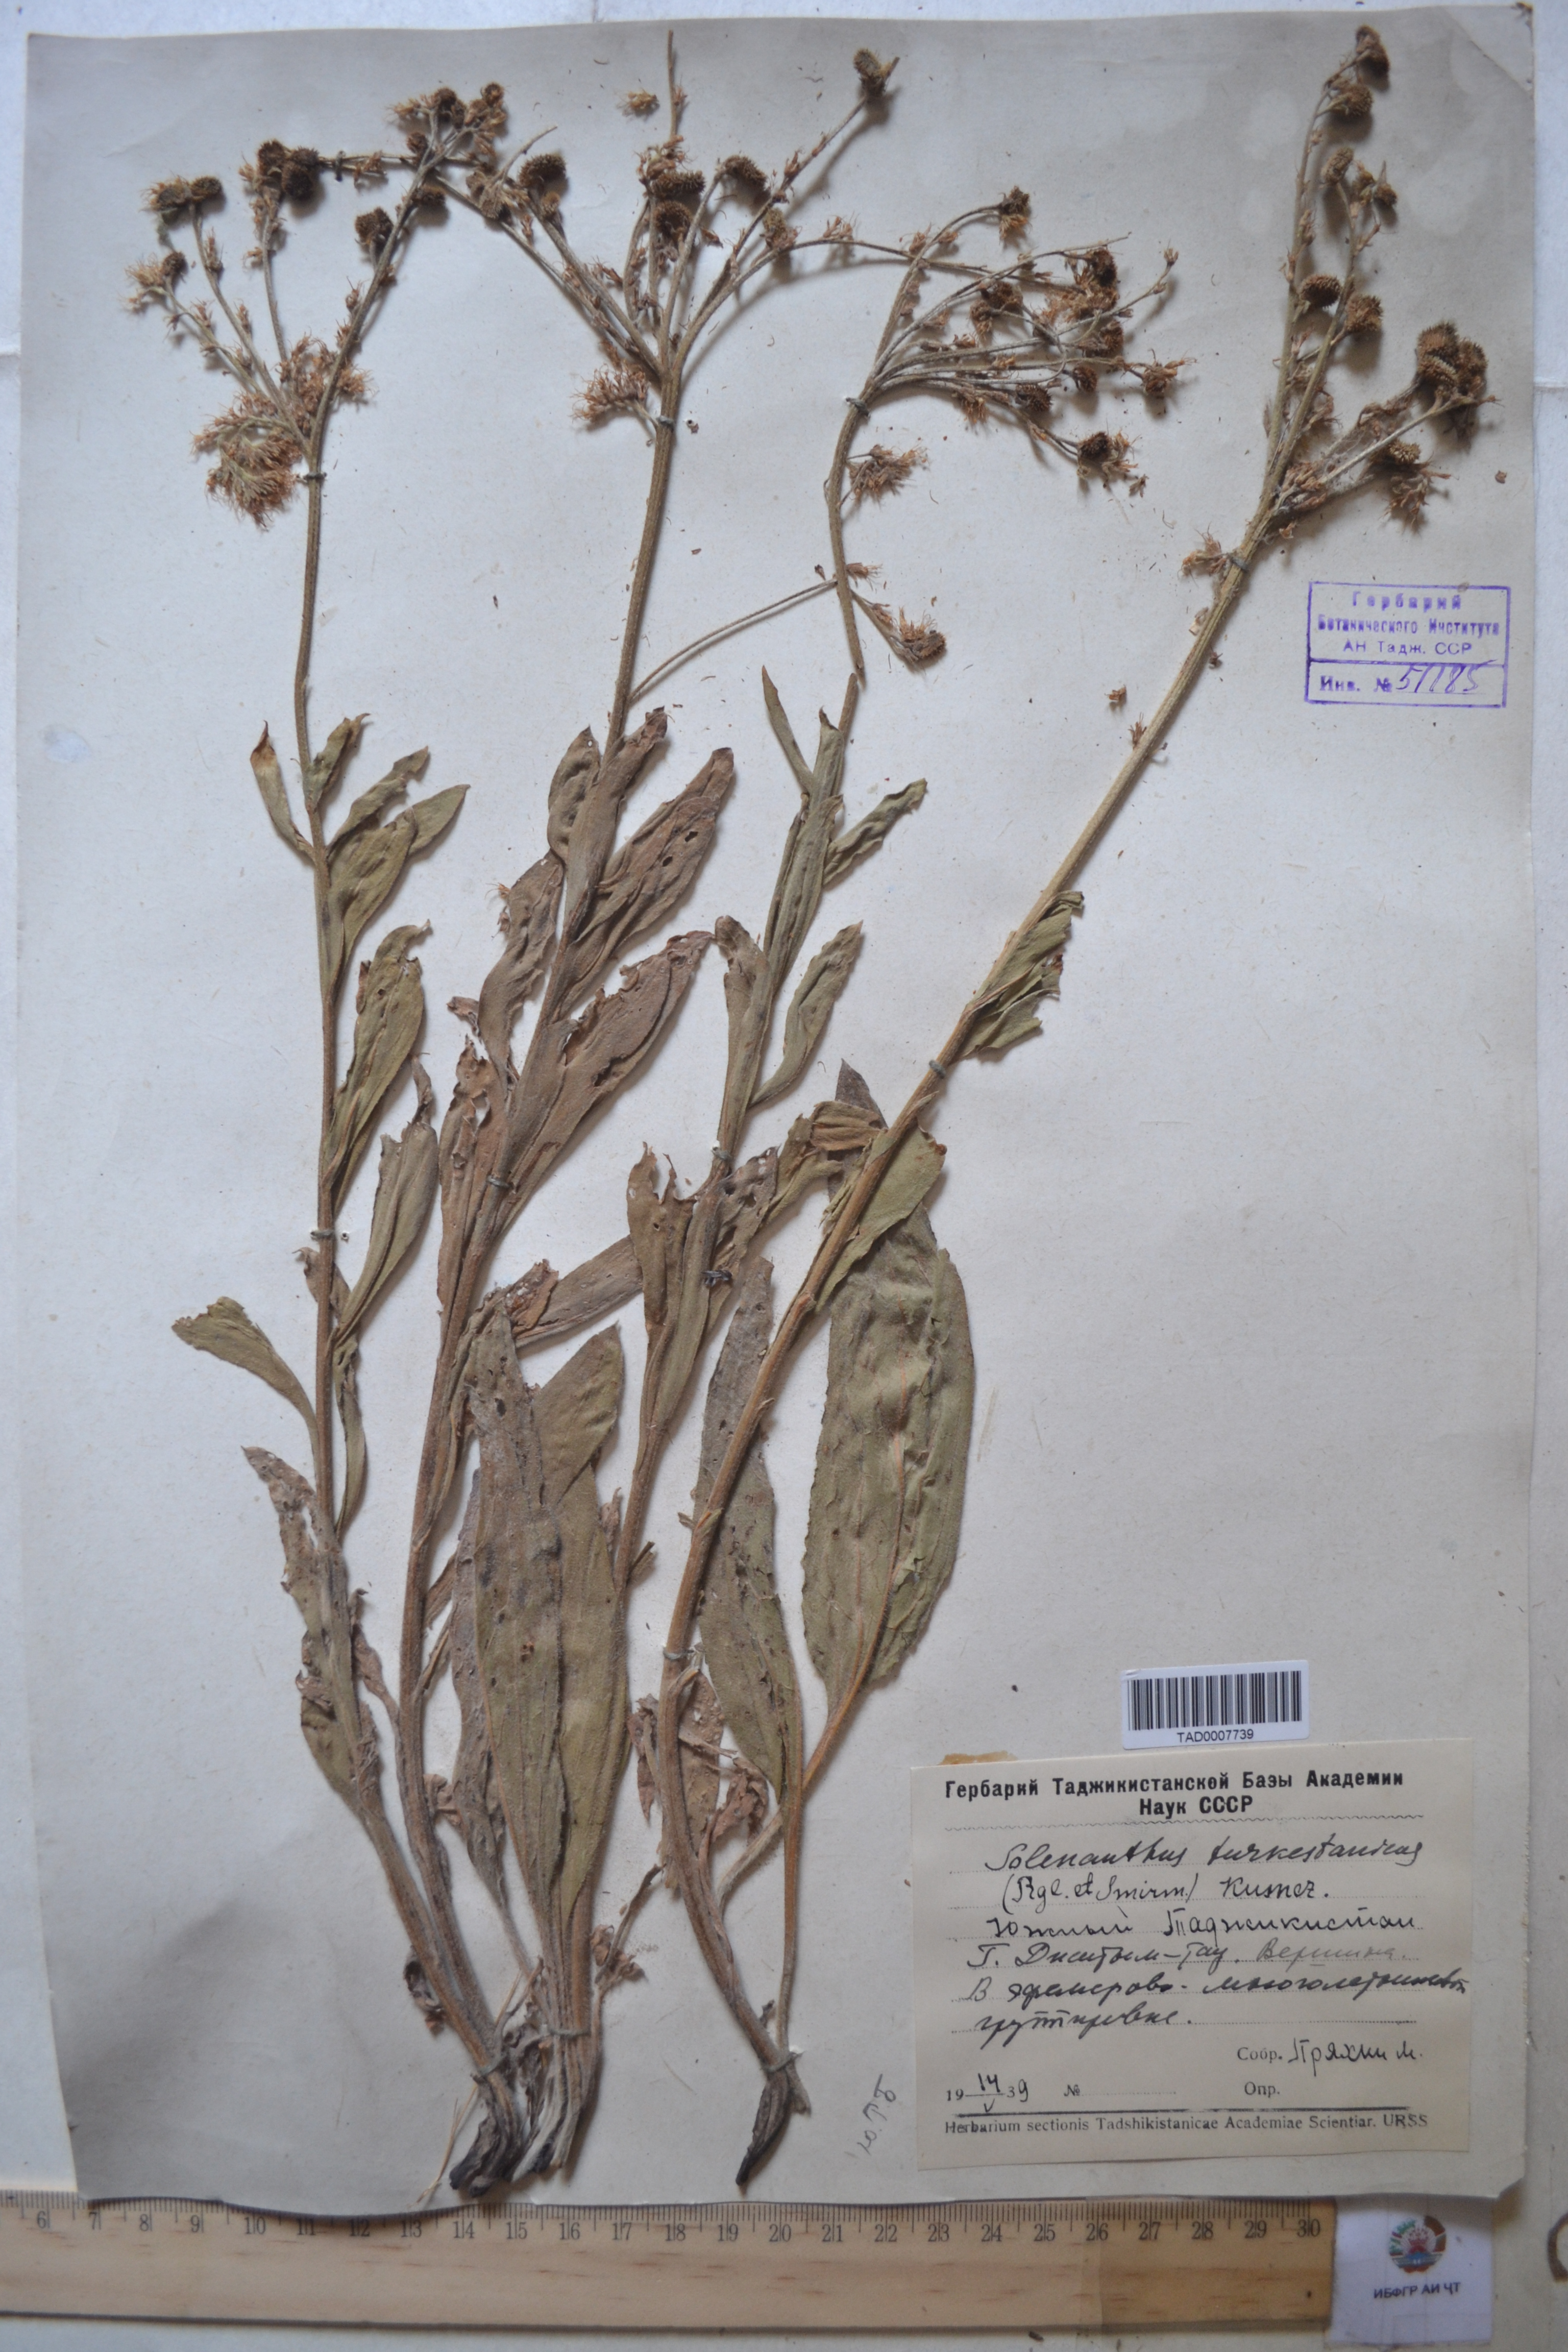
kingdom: Plantae
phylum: Tracheophyta
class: Magnoliopsida
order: Boraginales
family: Boraginaceae
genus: Solenanthus
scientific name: Solenanthus turkestanicus
